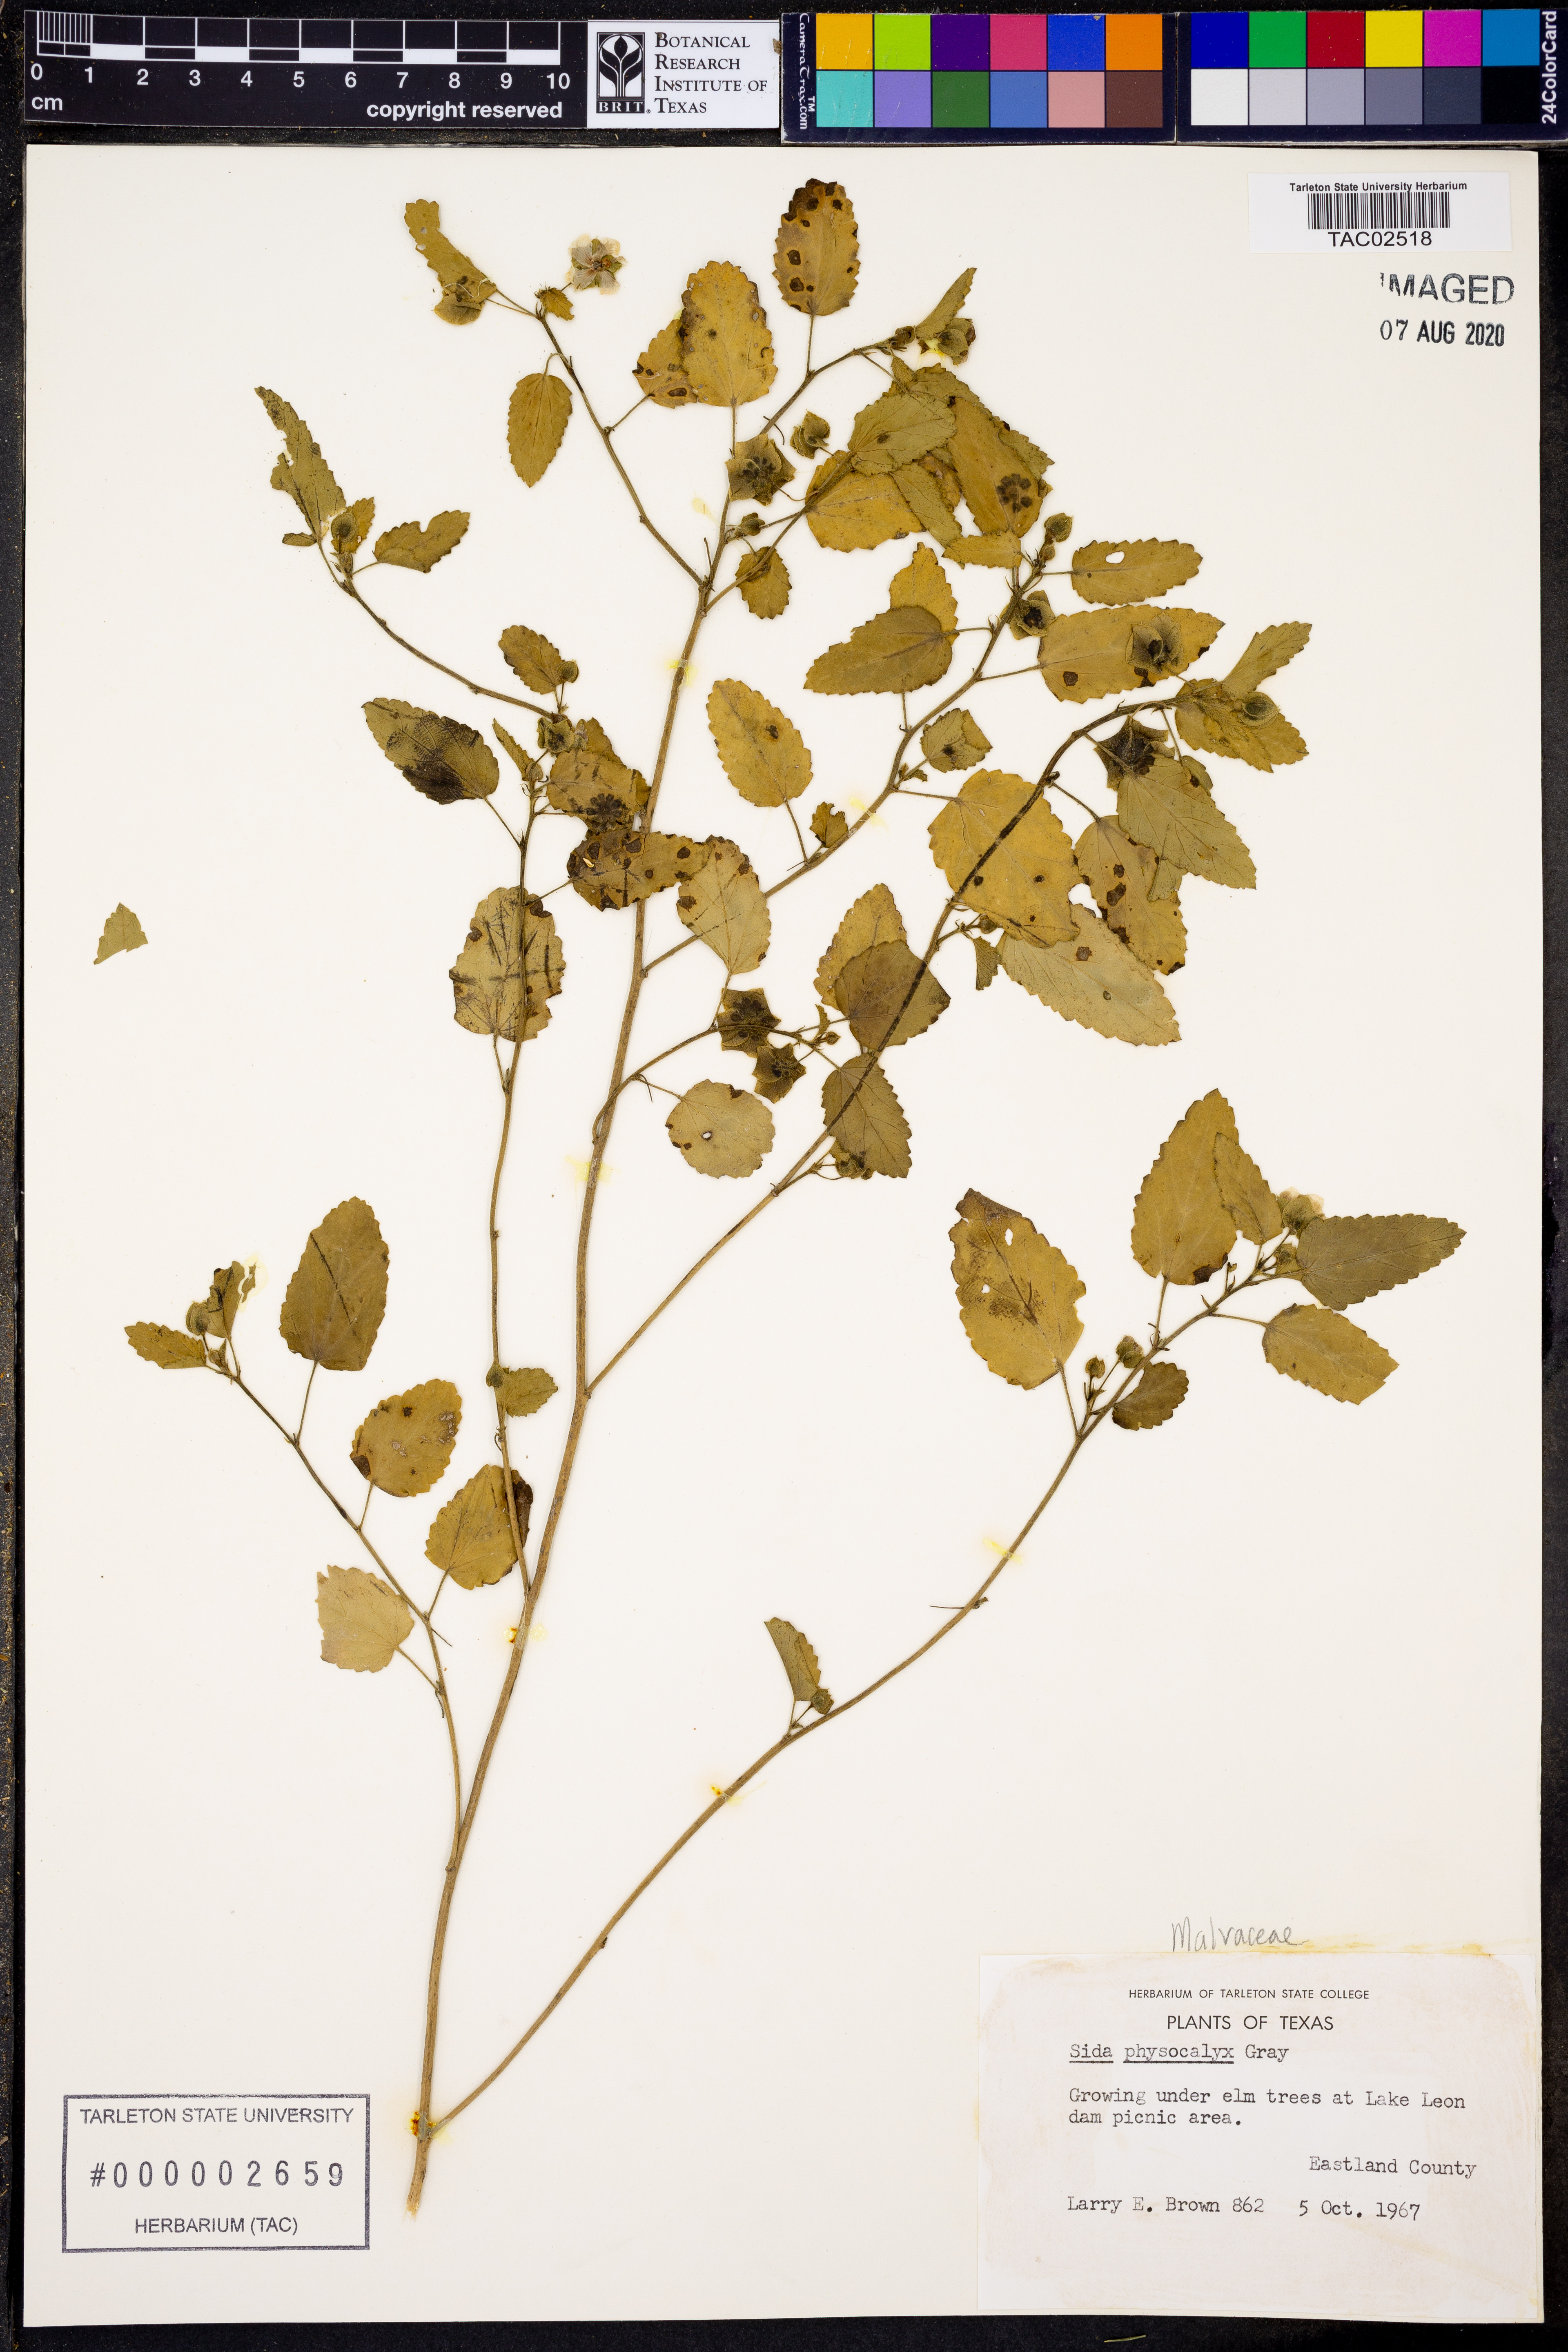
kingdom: Plantae
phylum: Tracheophyta
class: Magnoliopsida
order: Malvales
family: Malvaceae
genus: Rhynchosida
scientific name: Rhynchosida physocalyx
